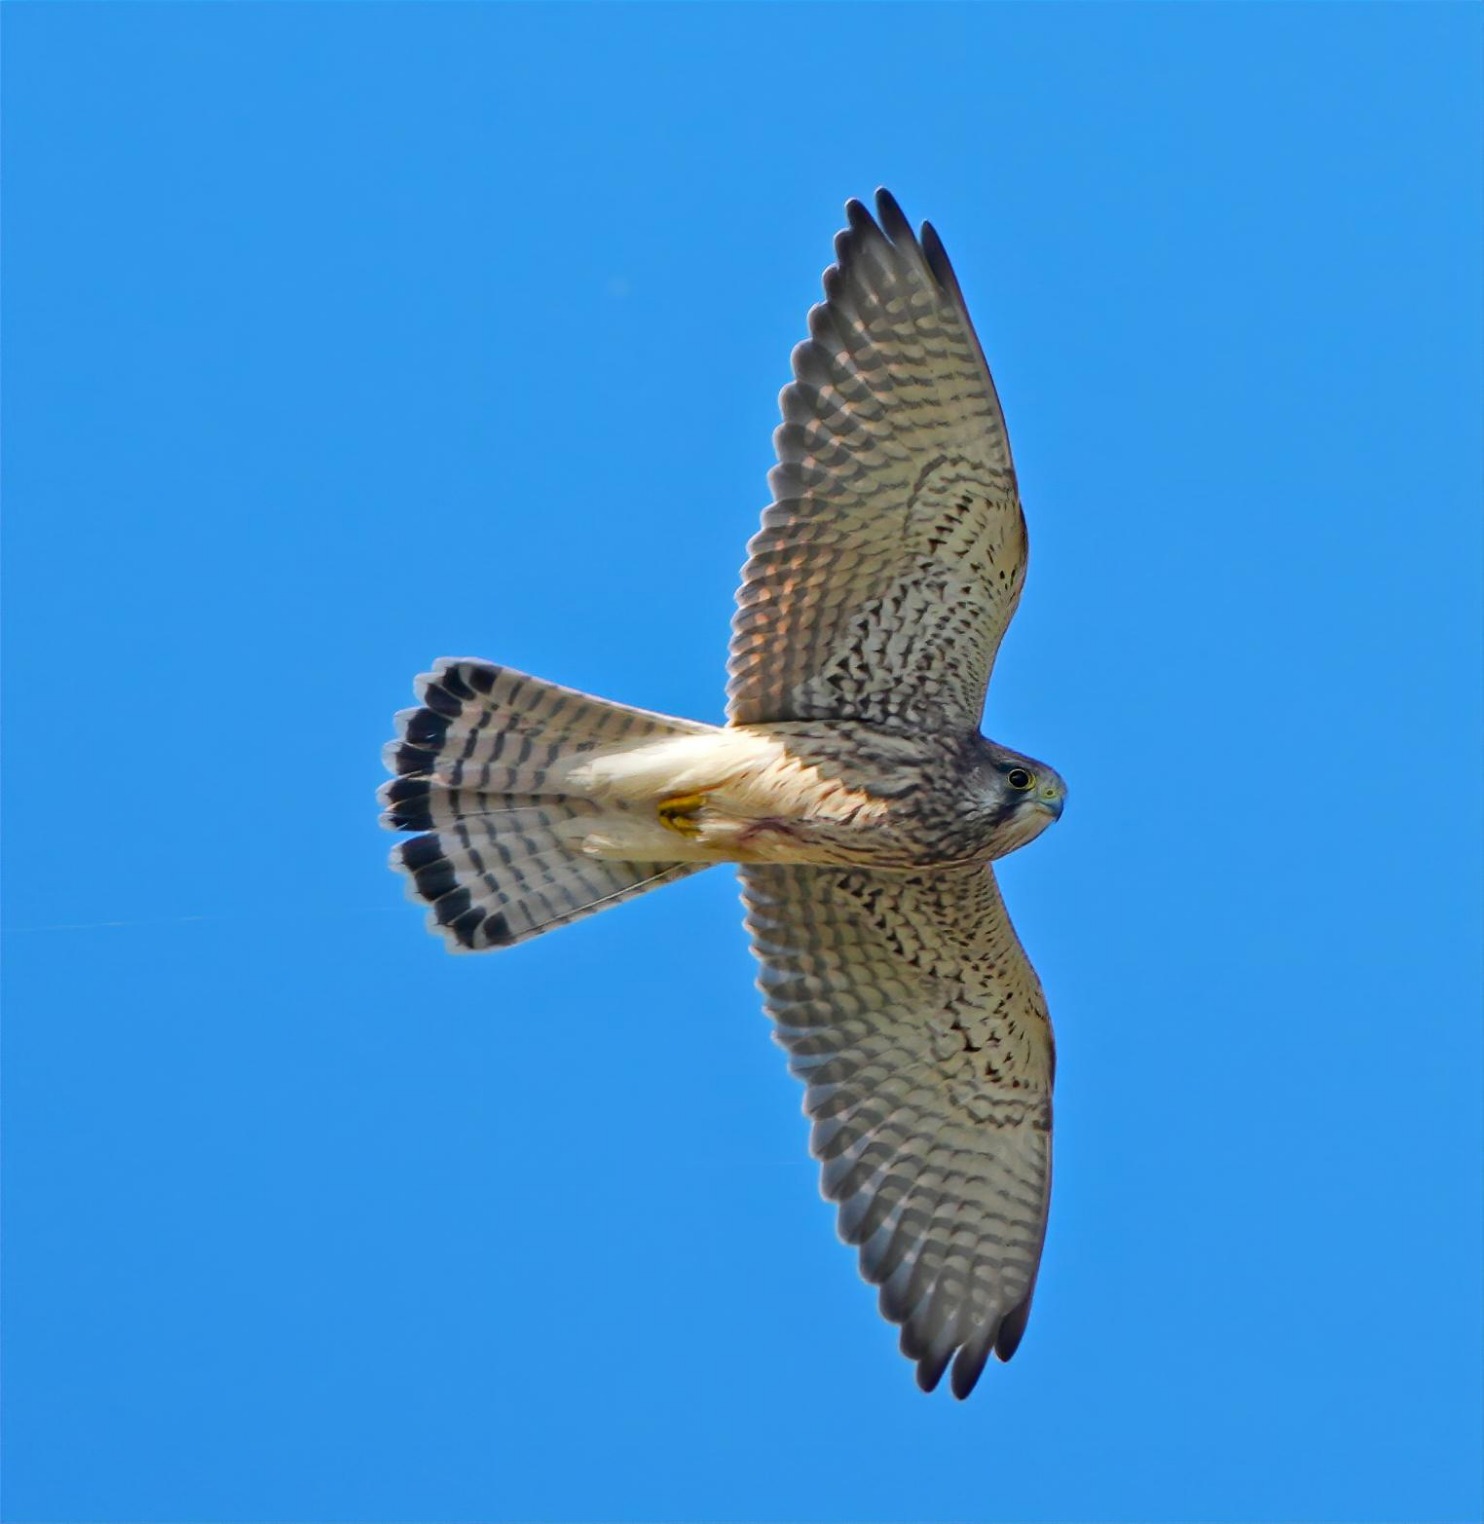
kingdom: Animalia
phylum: Chordata
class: Aves
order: Falconiformes
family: Falconidae
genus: Falco
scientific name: Falco tinnunculus
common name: Tårnfalk
